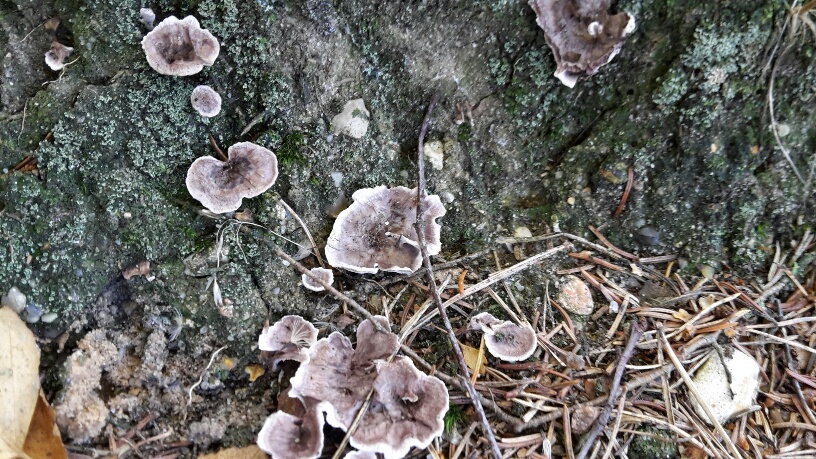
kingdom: Fungi
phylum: Basidiomycota
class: Agaricomycetes
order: Thelephorales
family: Thelephoraceae
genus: Phellodon
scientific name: Phellodon tomentosus
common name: tragtformet duftpigsvamp
